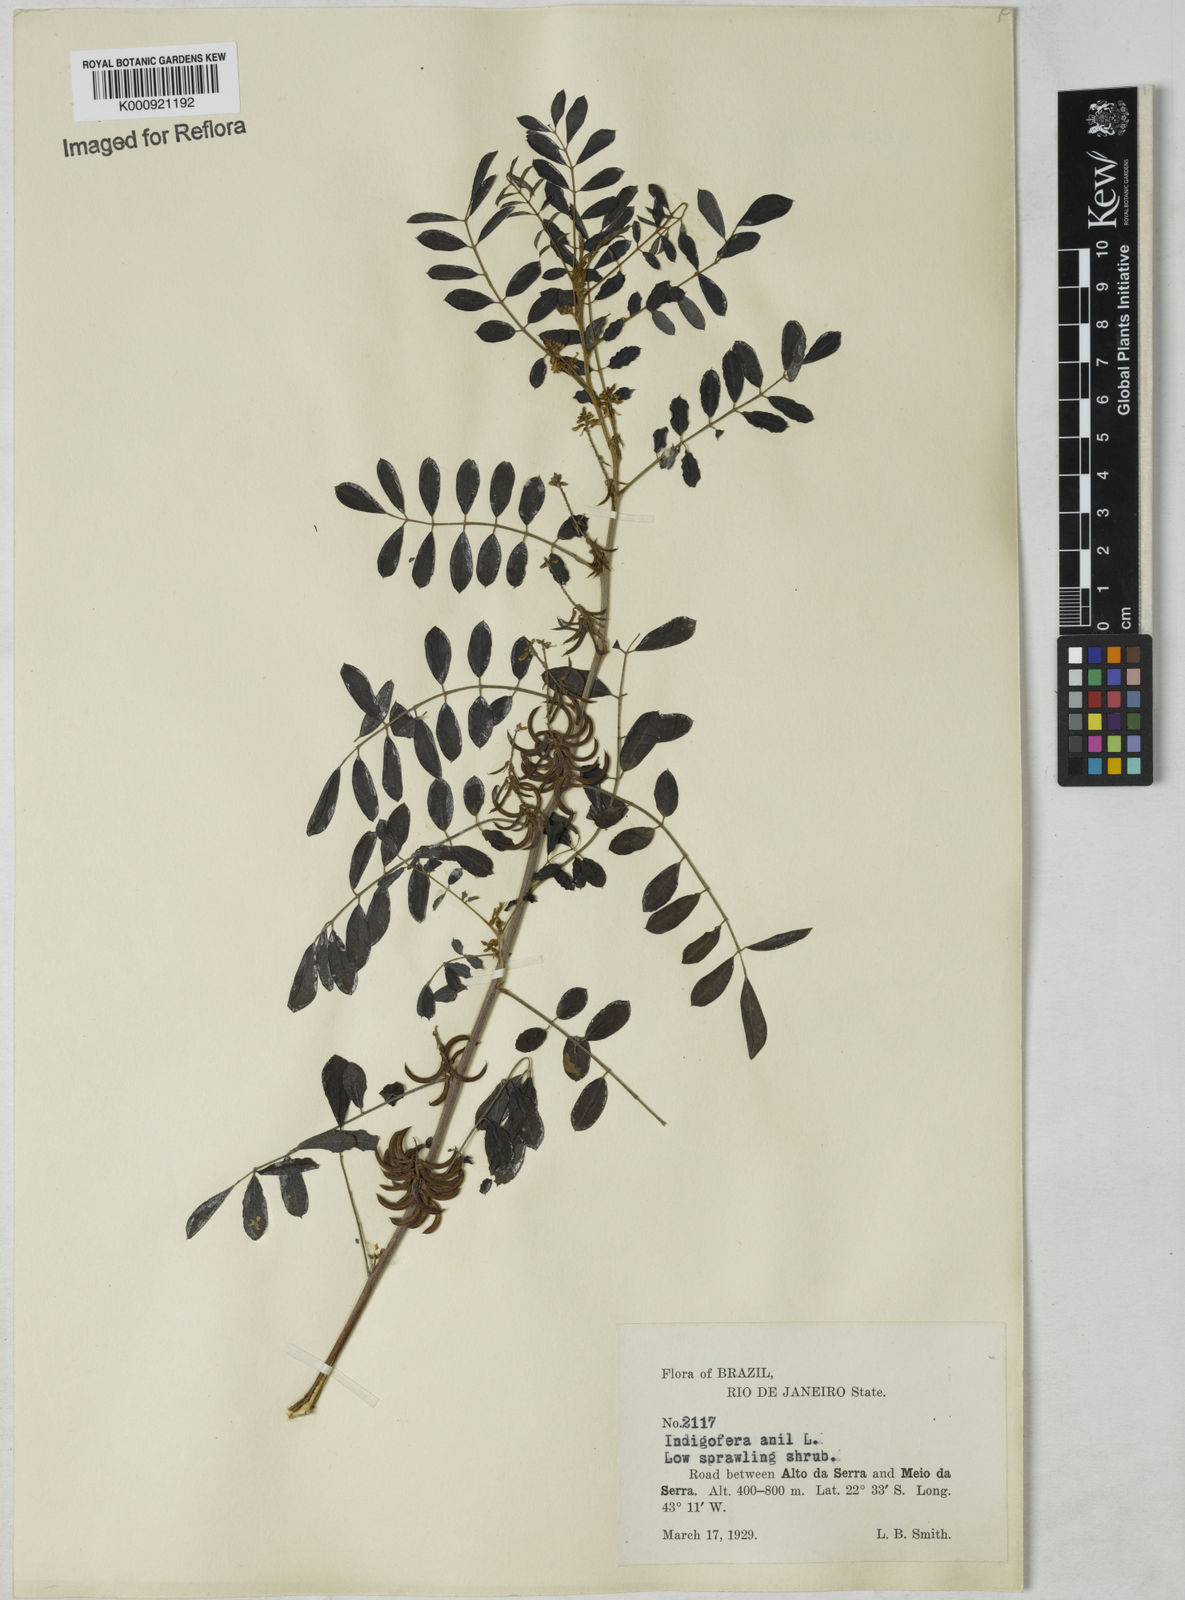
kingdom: Plantae
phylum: Tracheophyta
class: Magnoliopsida
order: Fabales
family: Fabaceae
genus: Indigofera
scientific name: Indigofera suffruticosa
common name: Anil de pasto
